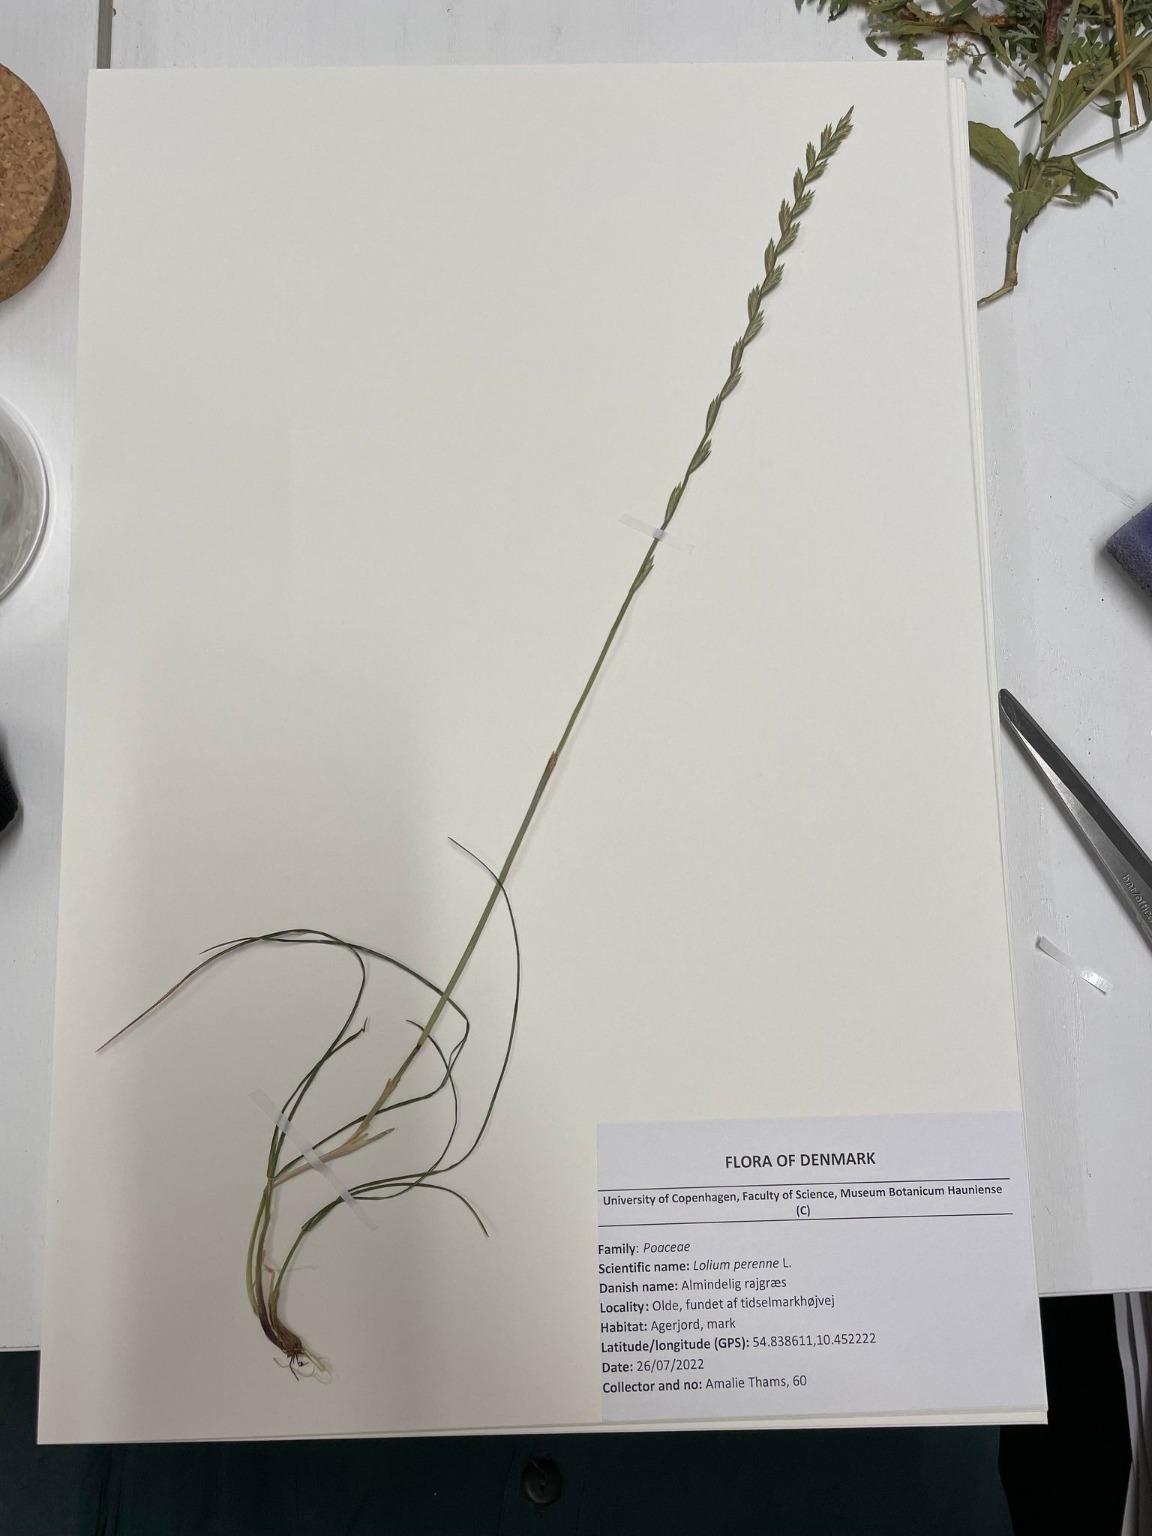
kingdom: Plantae
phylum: Tracheophyta
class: Liliopsida
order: Poales
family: Poaceae
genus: Lolium
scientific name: Lolium perenne
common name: Almindelig rajgræs
